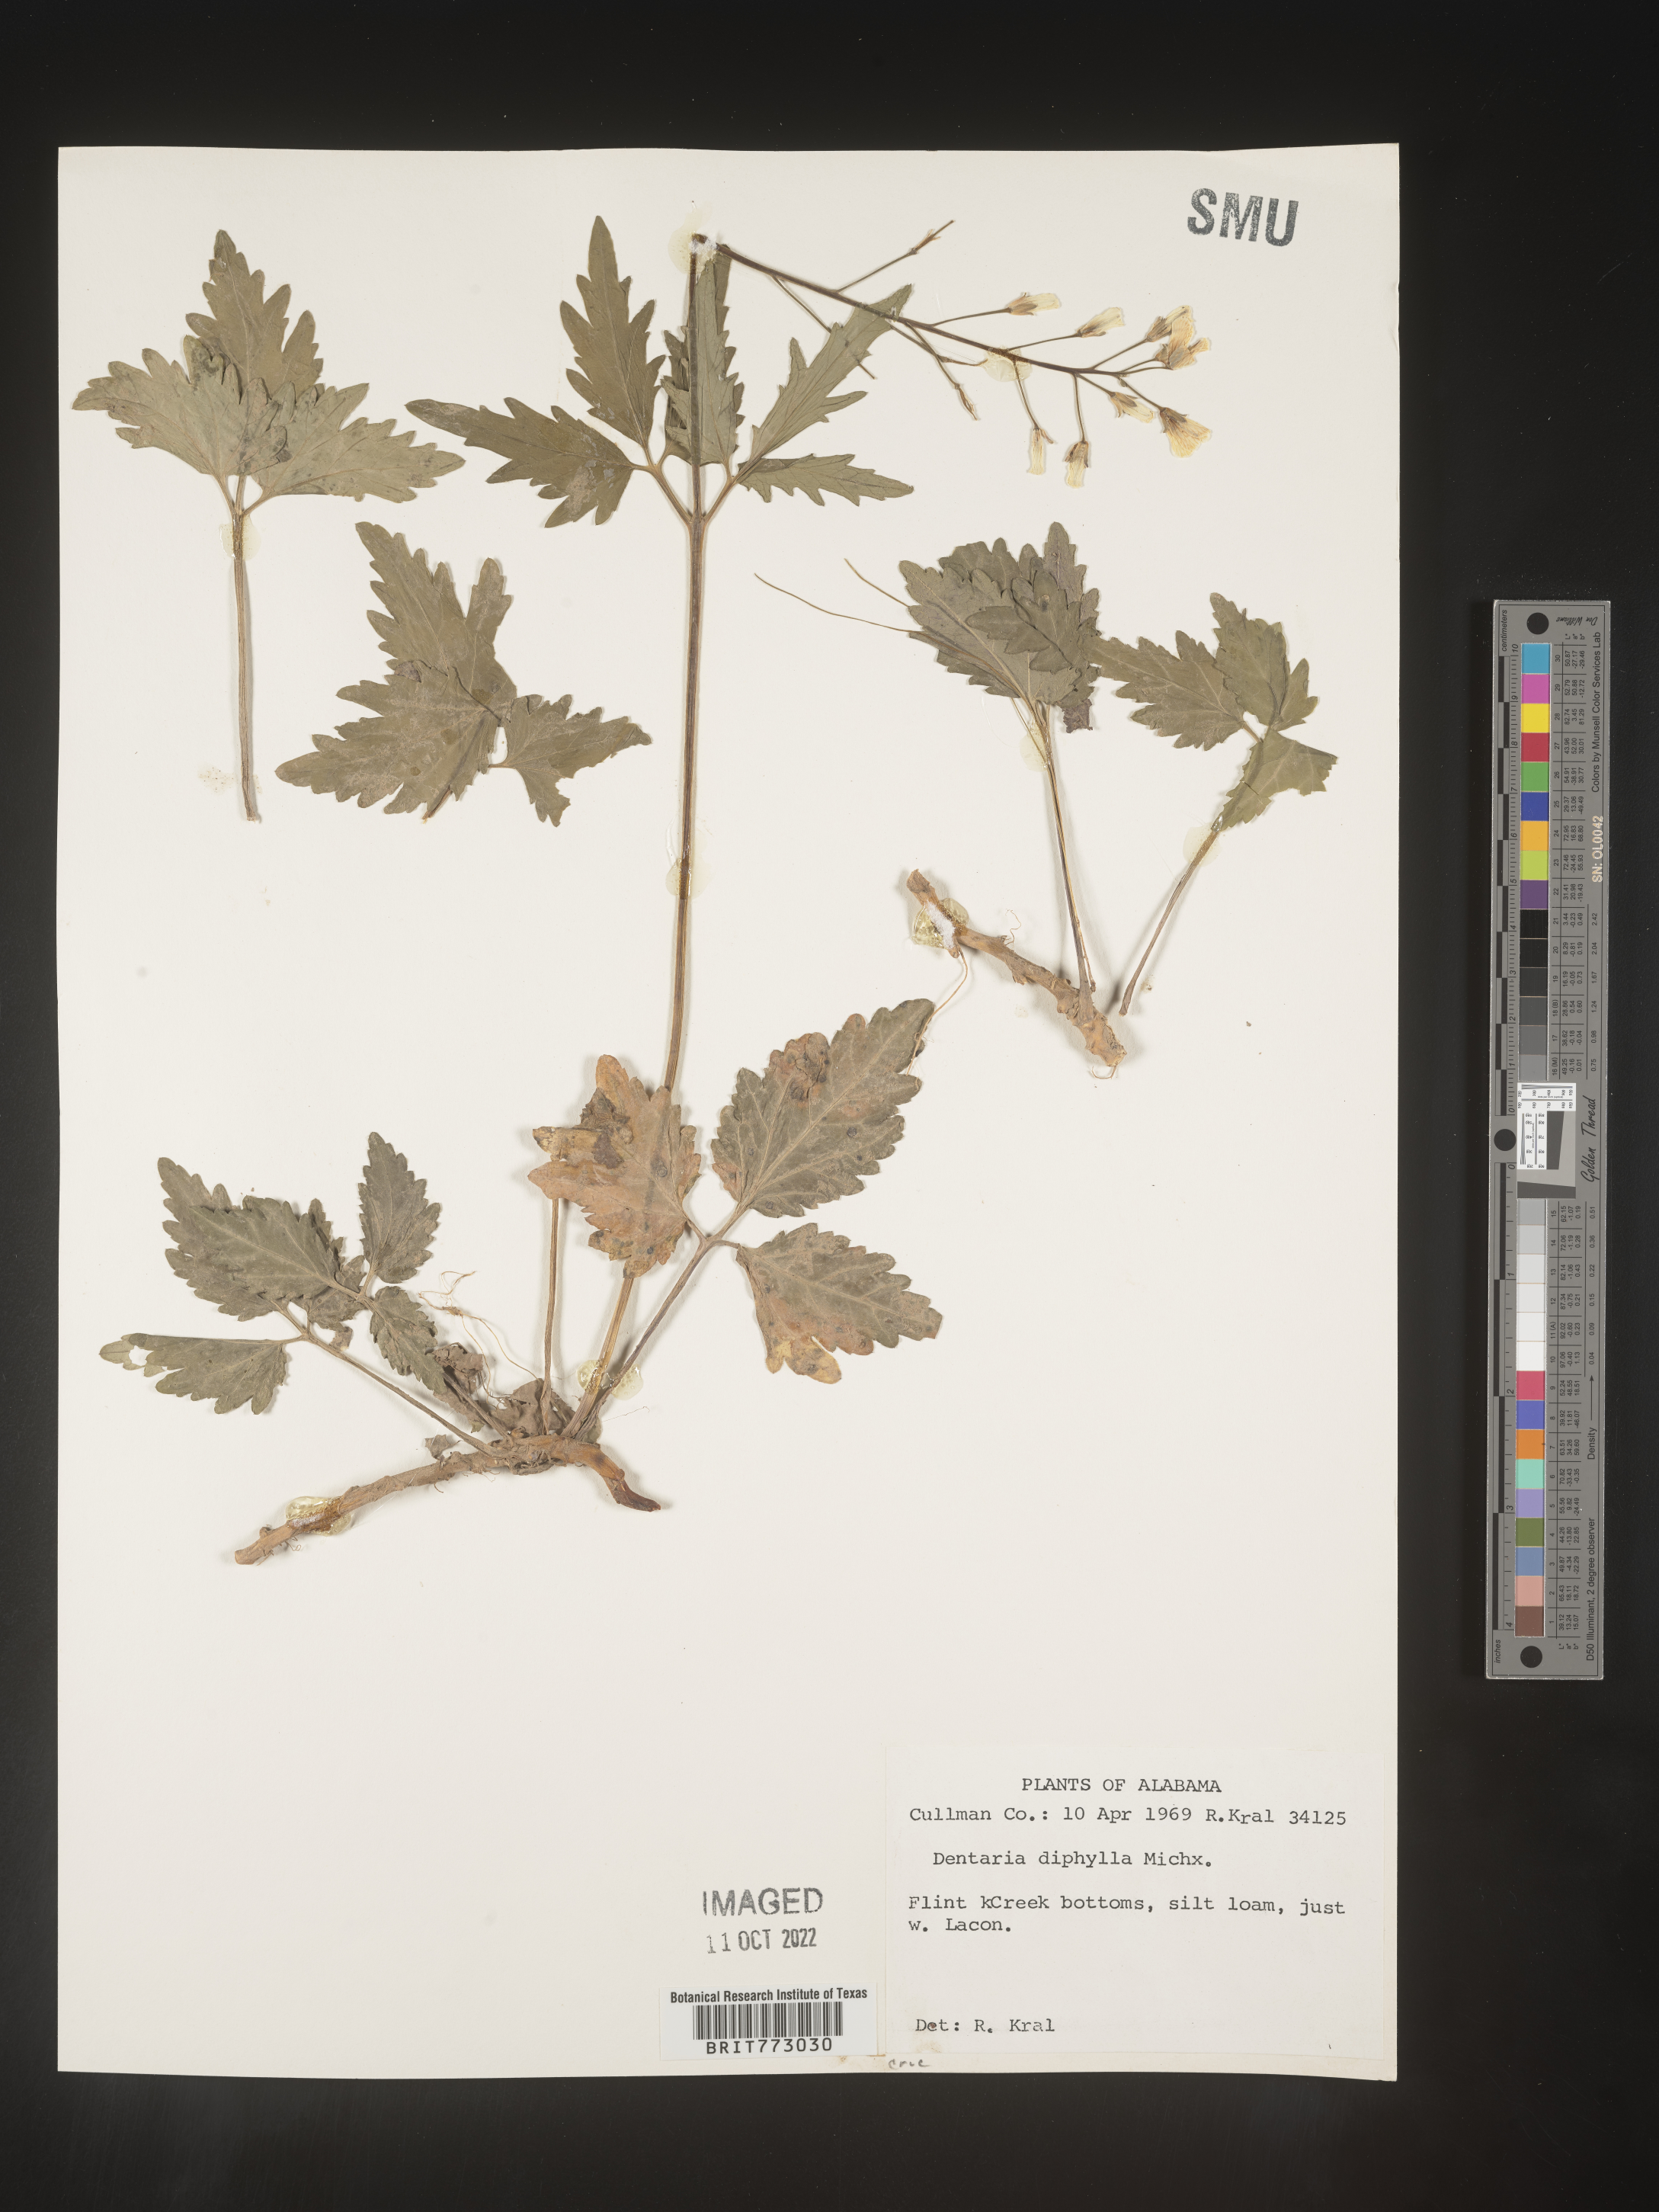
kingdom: Plantae
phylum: Tracheophyta
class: Magnoliopsida
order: Brassicales
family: Brassicaceae
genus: Cardamine
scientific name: Cardamine diphylla
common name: Broad-leaved toothwort
